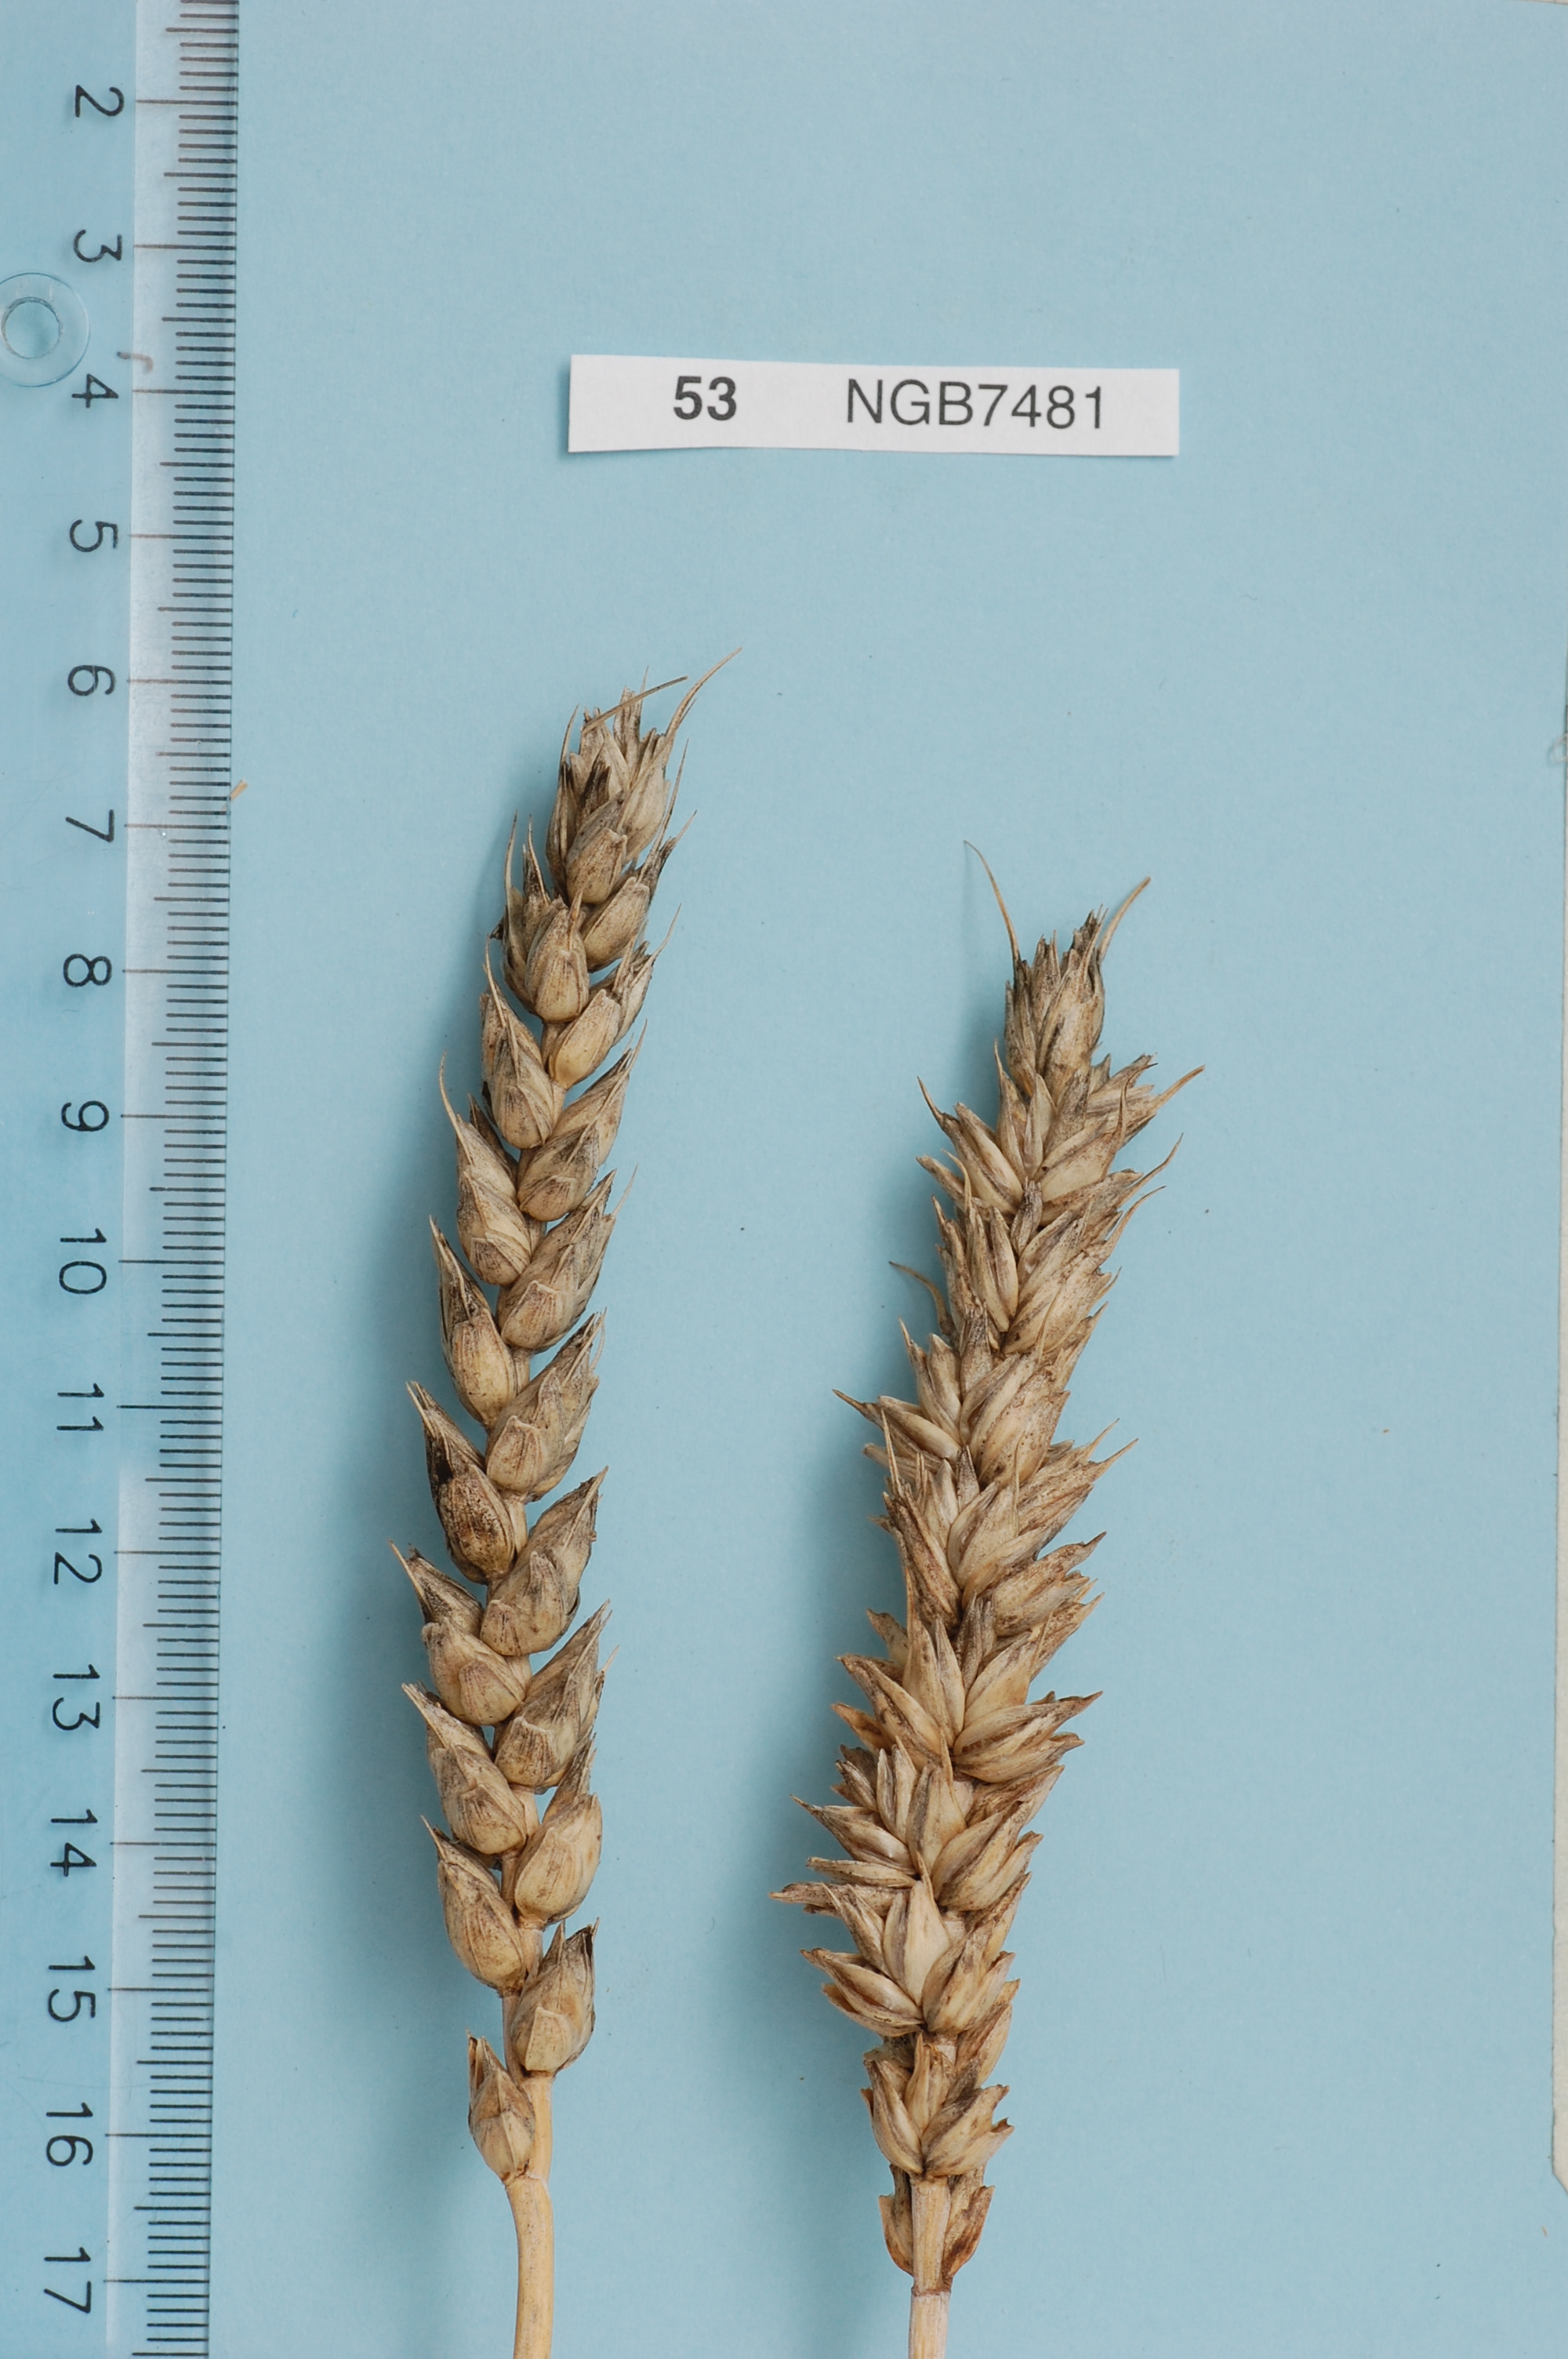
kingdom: Plantae
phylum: Tracheophyta
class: Liliopsida
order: Poales
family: Poaceae
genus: Triticum
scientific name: Triticum aestivum
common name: Common wheat
